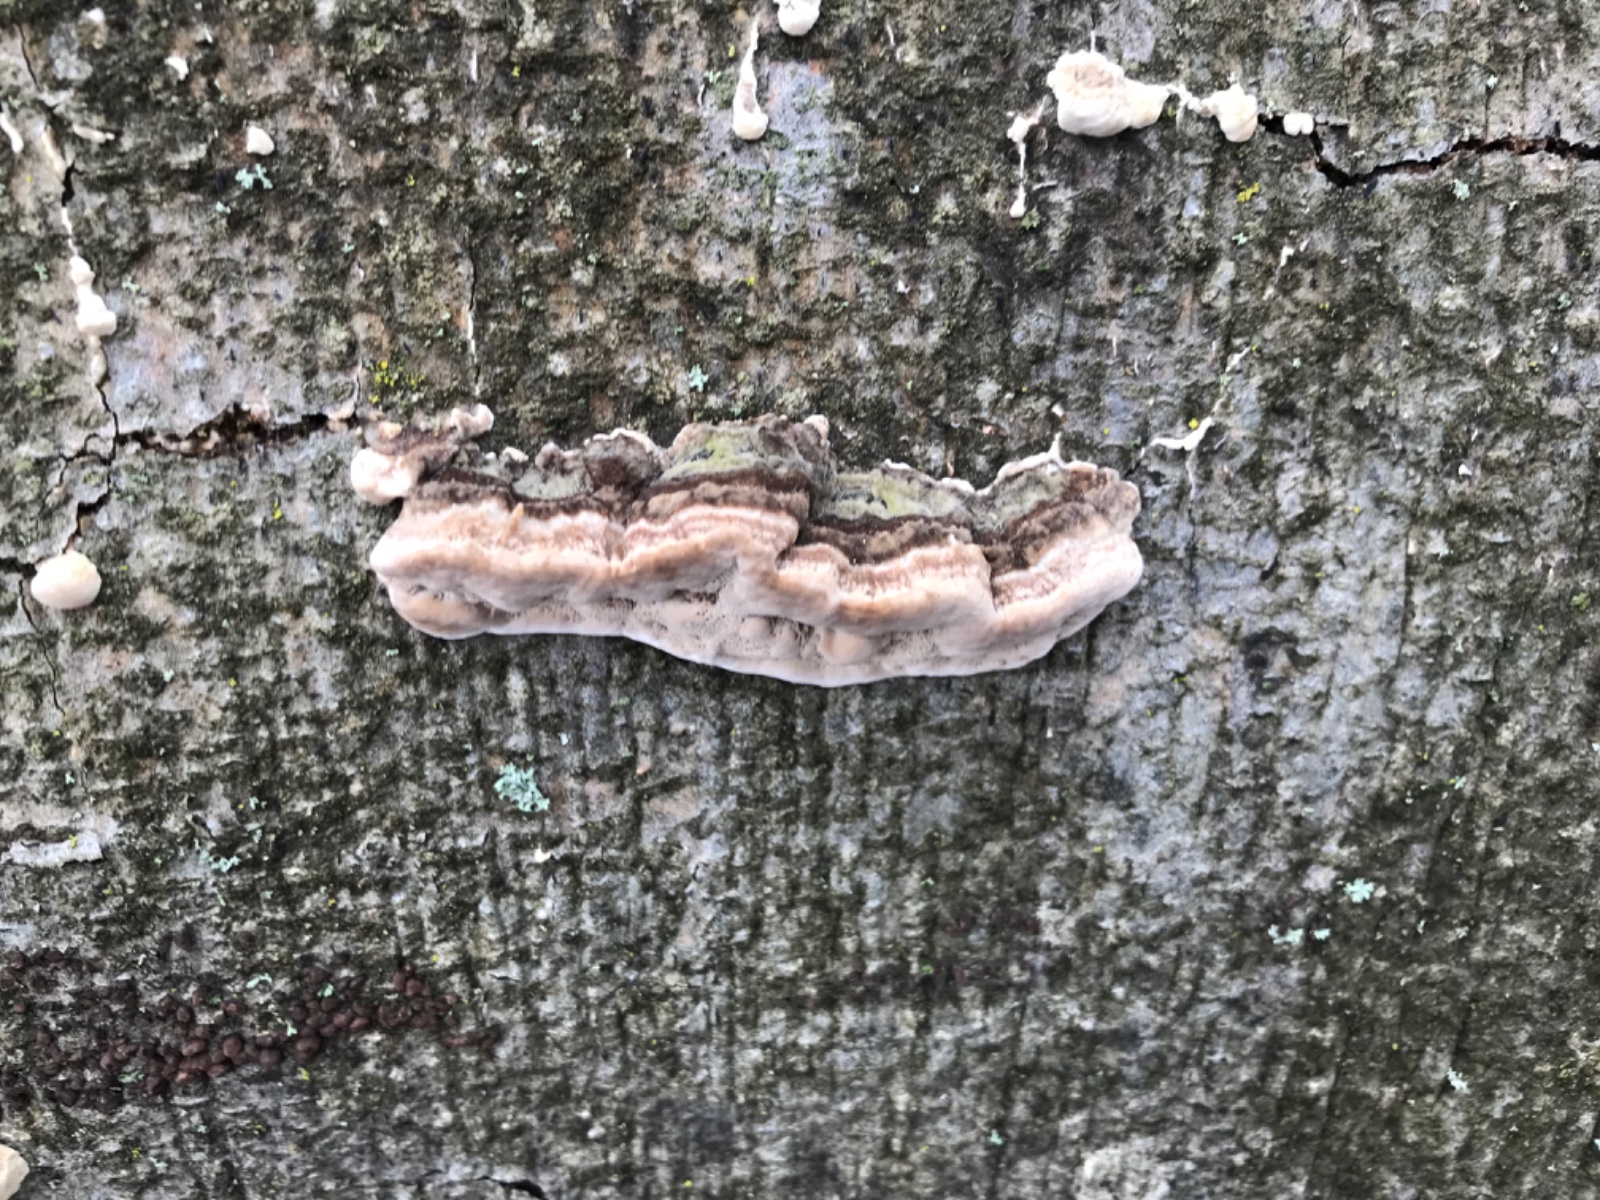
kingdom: Fungi
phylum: Basidiomycota
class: Agaricomycetes
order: Polyporales
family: Polyporaceae
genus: Trametes
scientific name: Trametes
